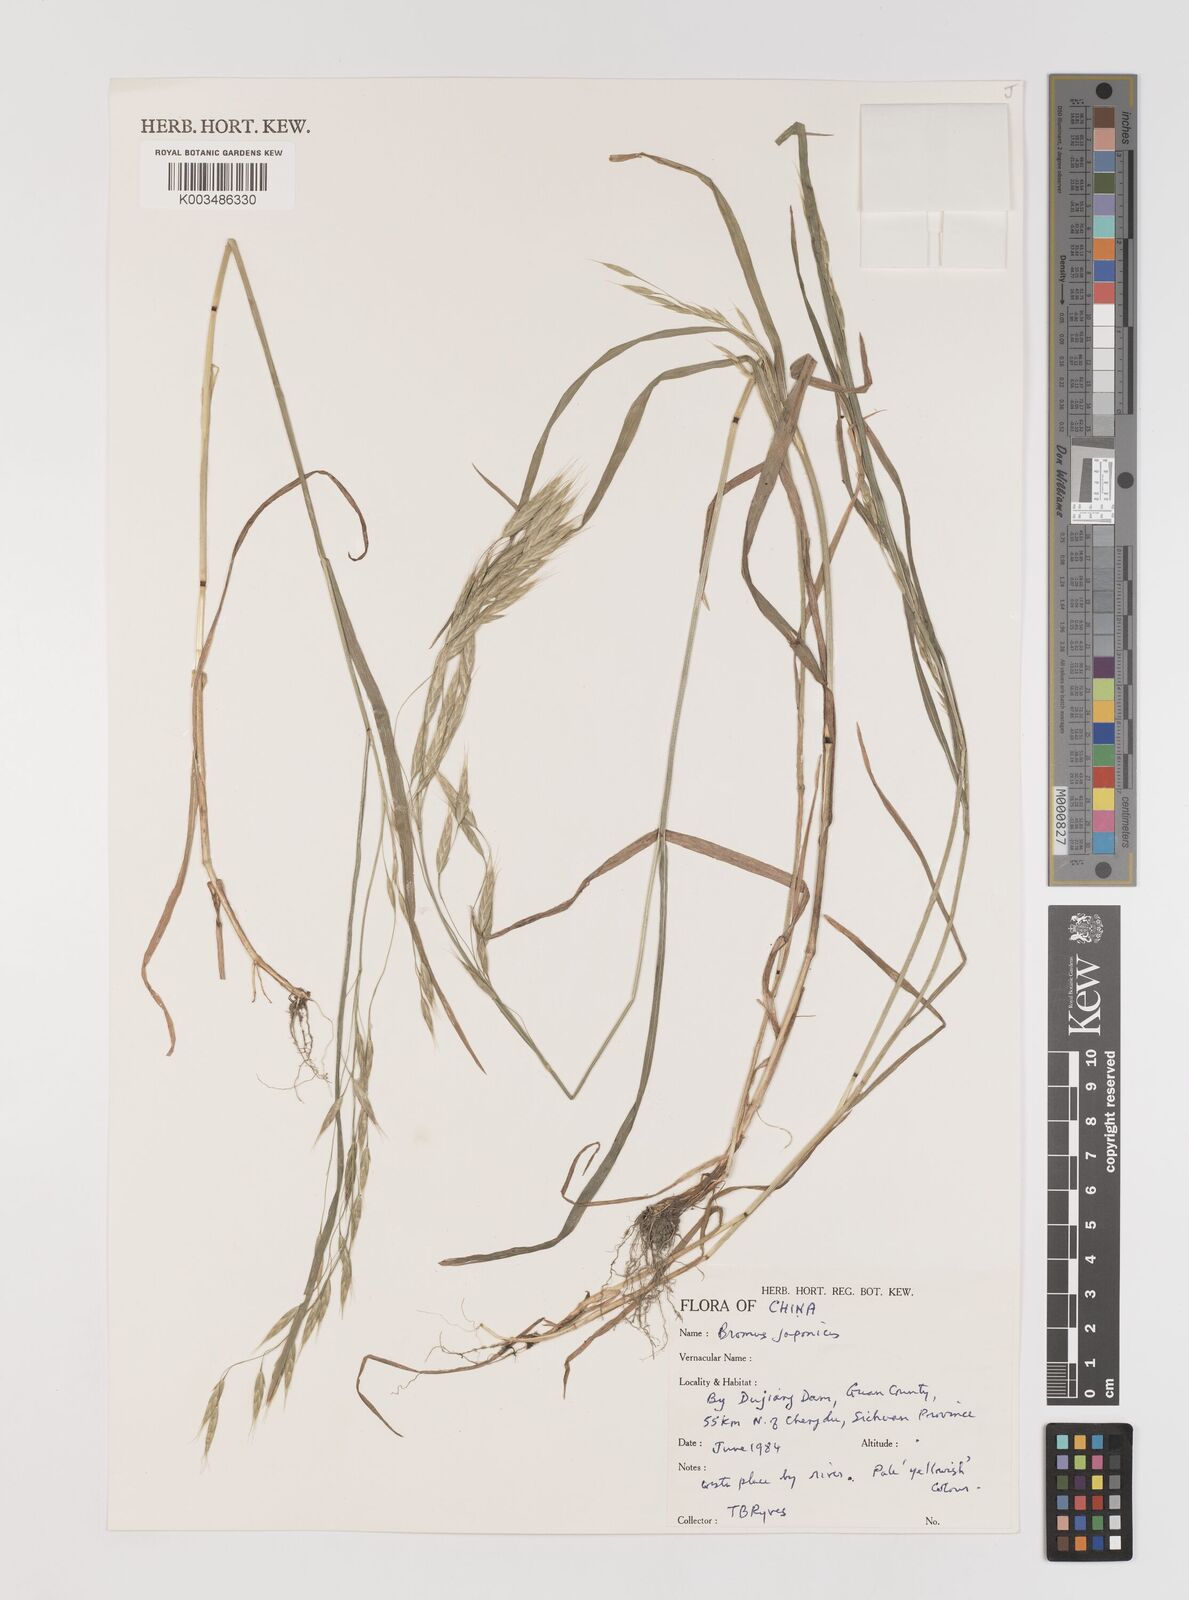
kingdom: Plantae
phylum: Tracheophyta
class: Liliopsida
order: Poales
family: Poaceae
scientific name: Poaceae
